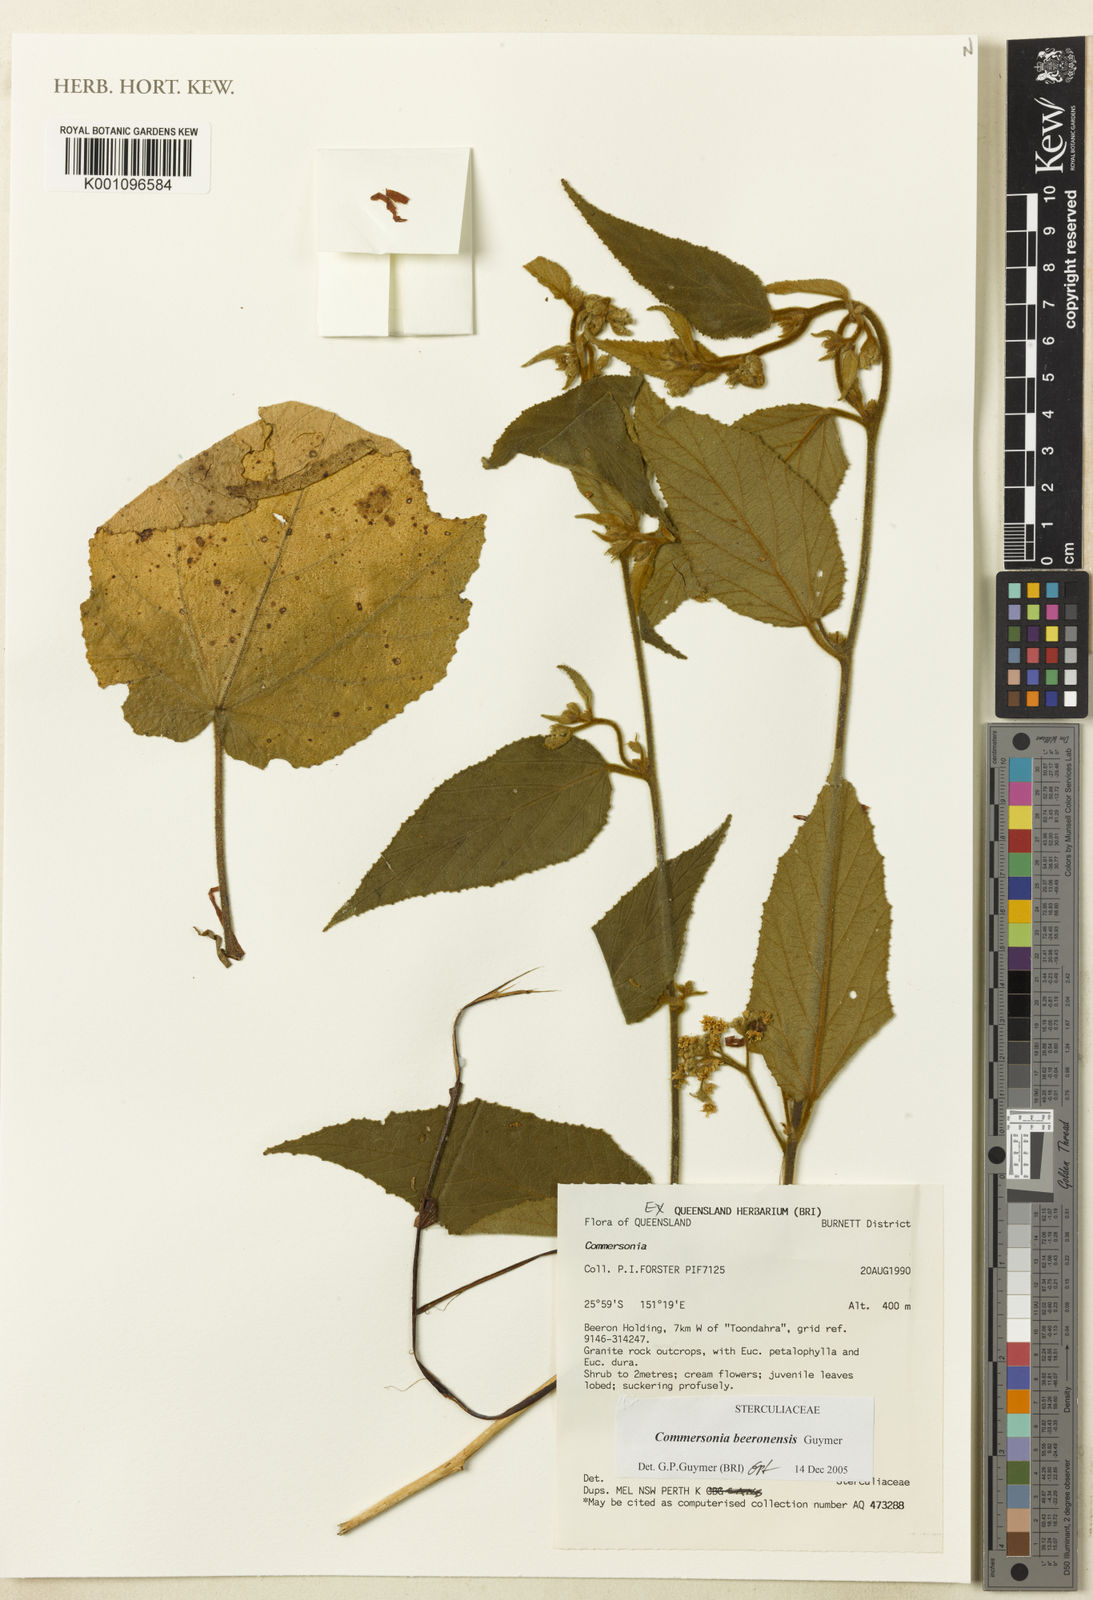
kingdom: Plantae
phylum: Tracheophyta
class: Magnoliopsida
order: Malvales
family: Malvaceae
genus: Androcalva
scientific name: Androcalva beeronensis
